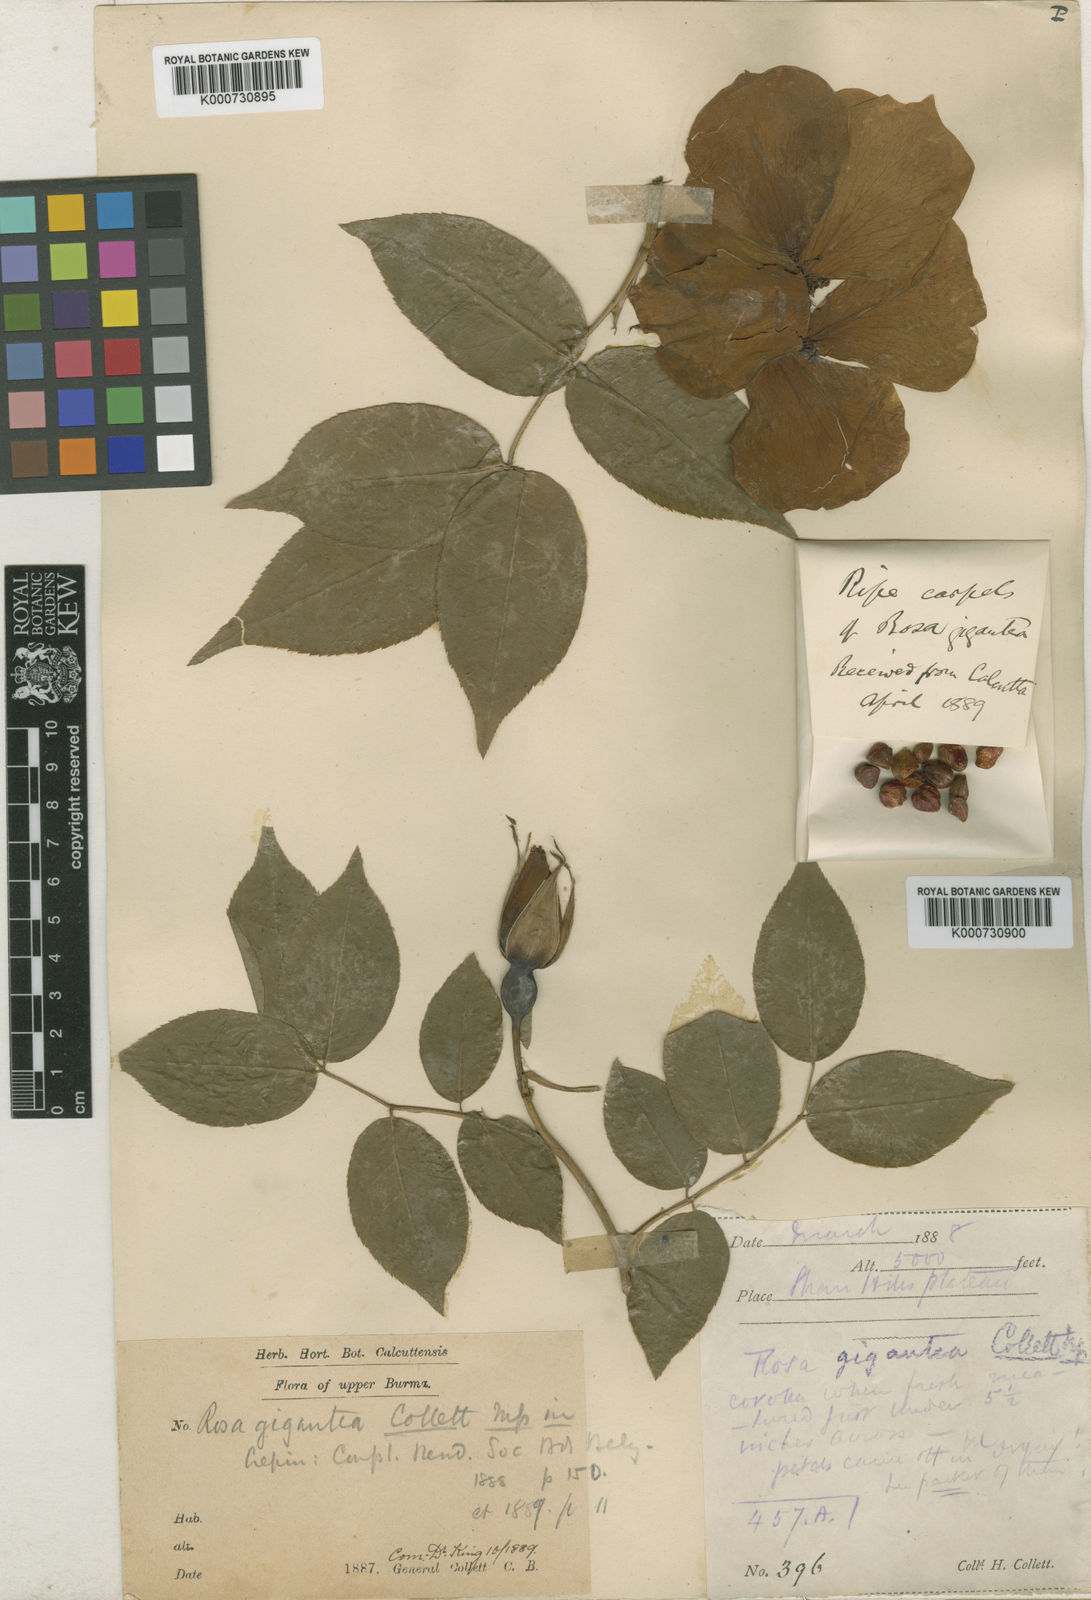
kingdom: Plantae
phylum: Tracheophyta
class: Magnoliopsida
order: Rosales
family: Rosaceae
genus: Rosa
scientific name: Rosa odorata
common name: Tea rose
